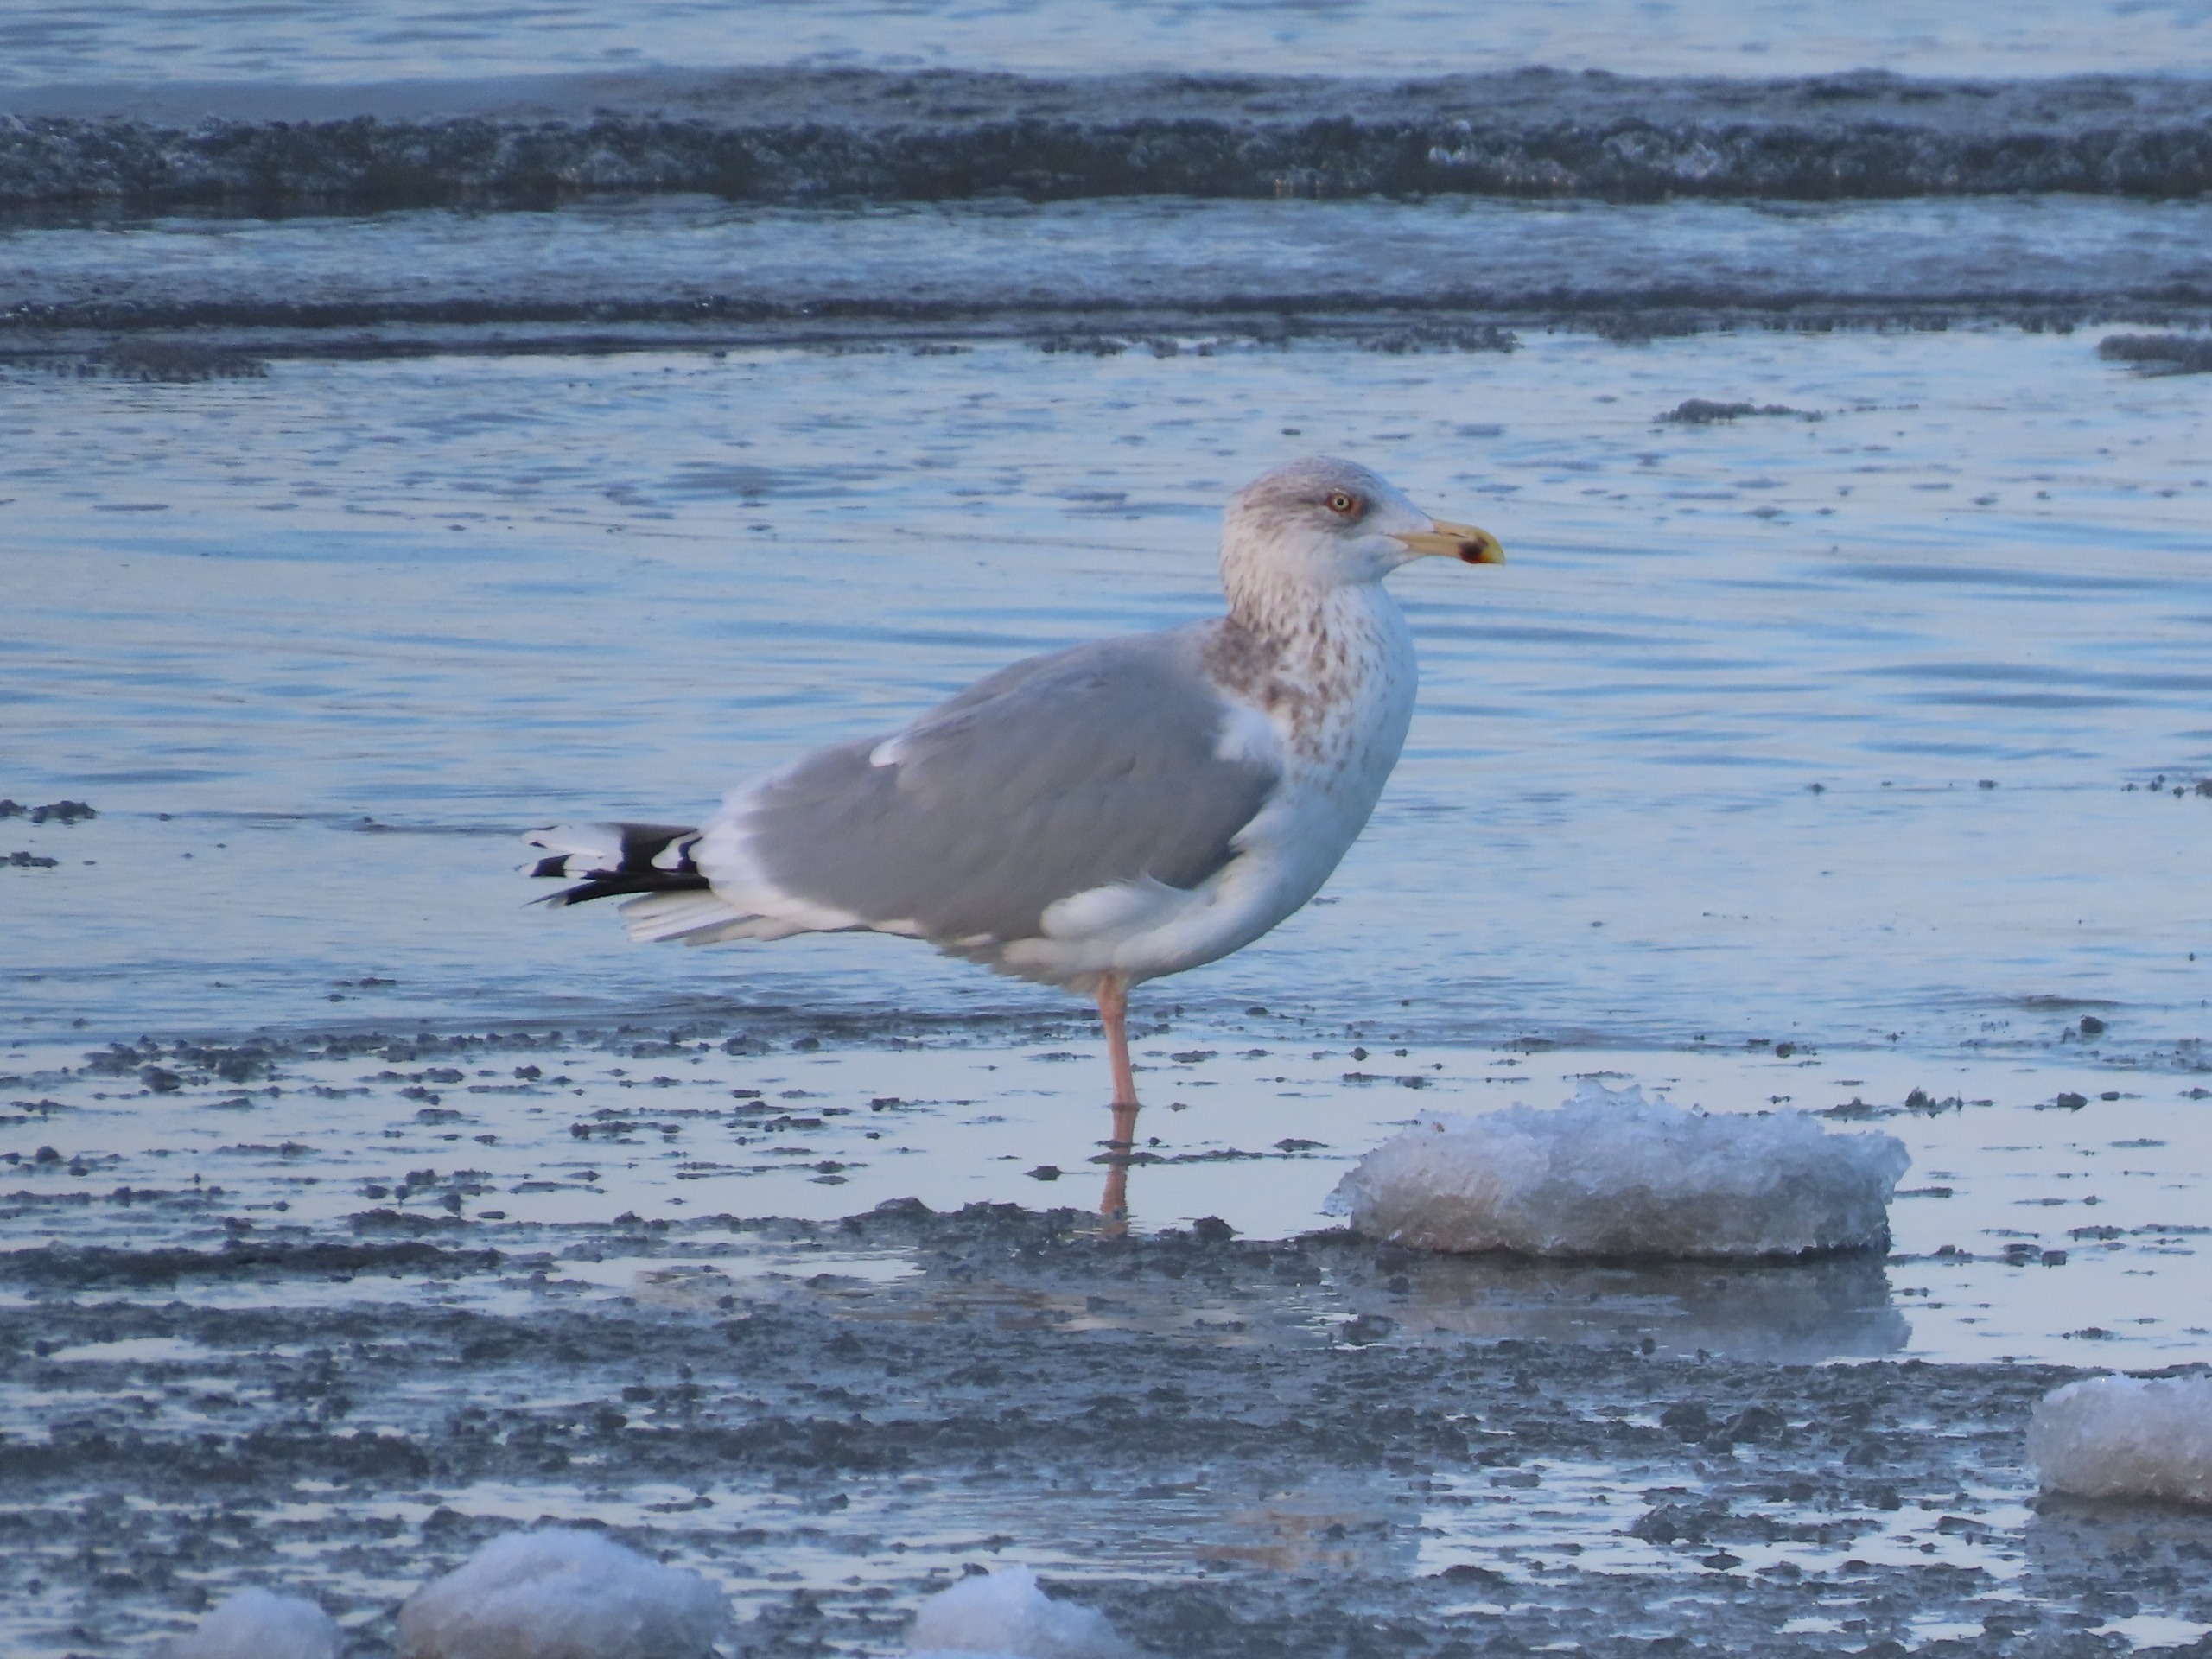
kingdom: Animalia
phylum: Chordata
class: Aves
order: Charadriiformes
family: Laridae
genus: Larus
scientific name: Larus argentatus
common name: Sølvmåge
